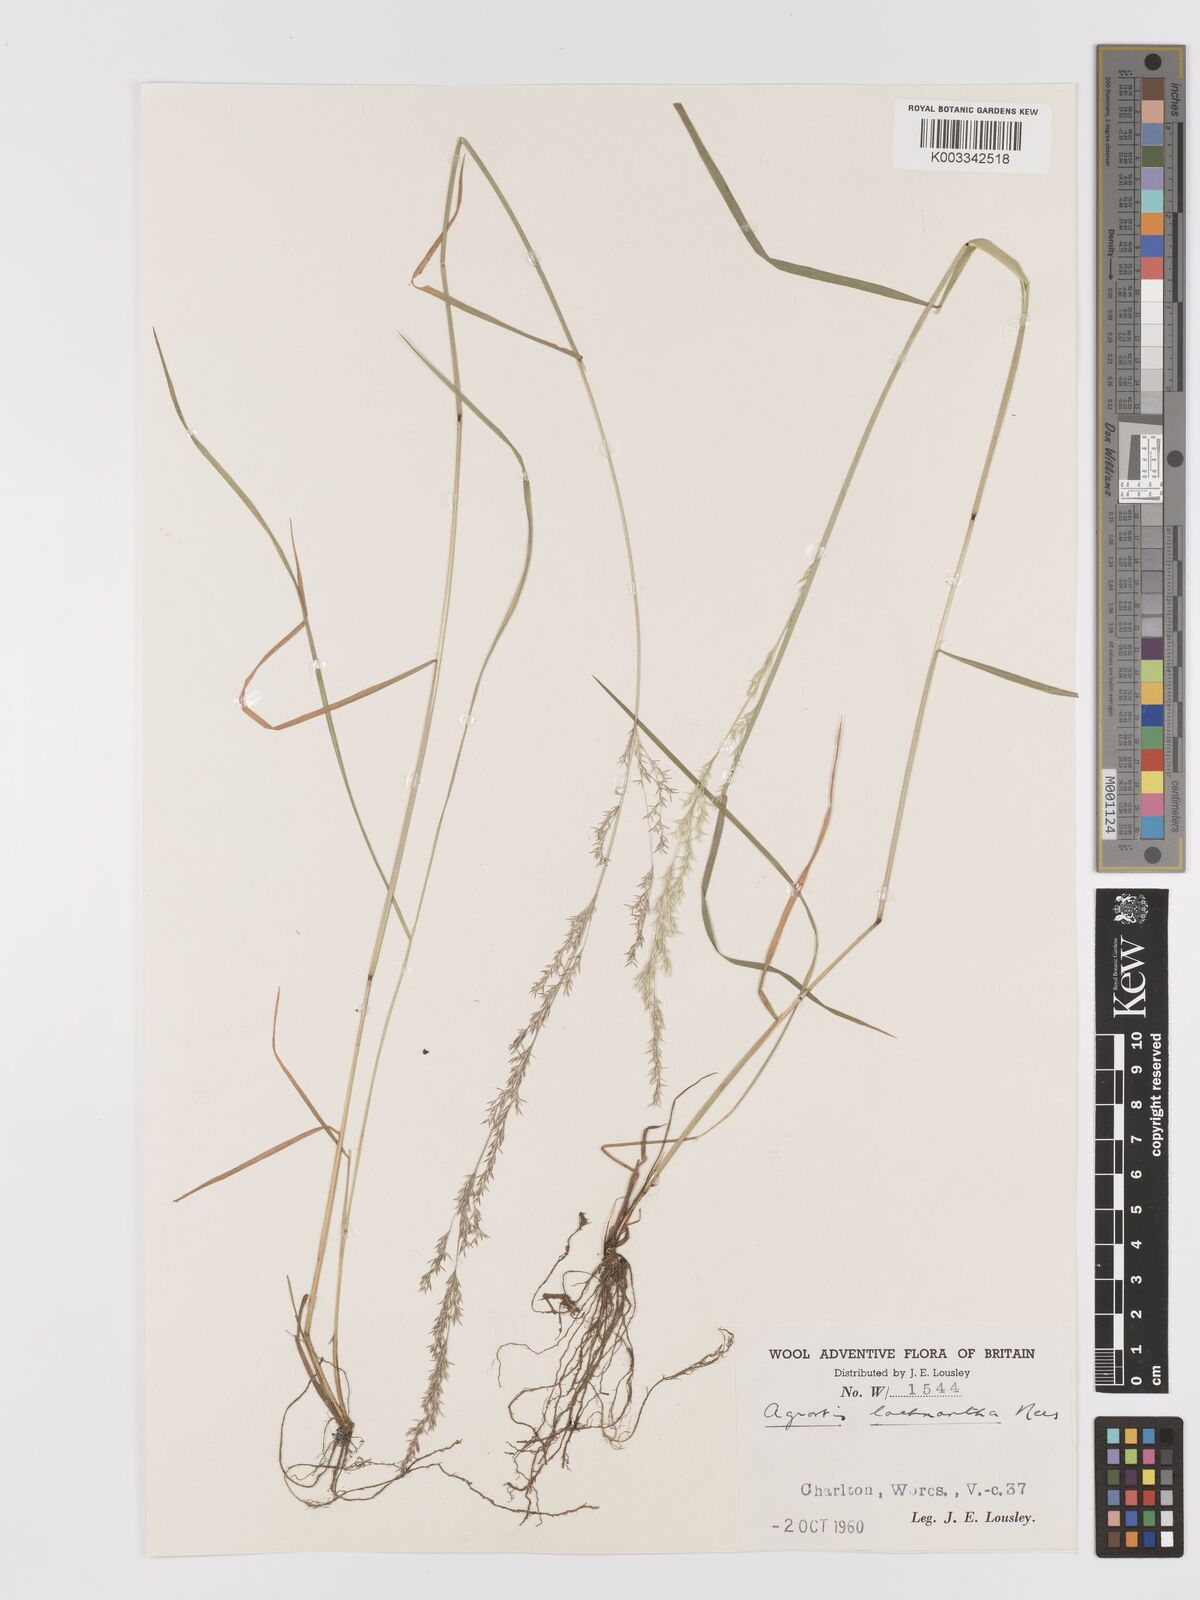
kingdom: Plantae
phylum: Tracheophyta
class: Liliopsida
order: Poales
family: Poaceae
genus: Lachnagrostis
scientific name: Lachnagrostis lachnantha
